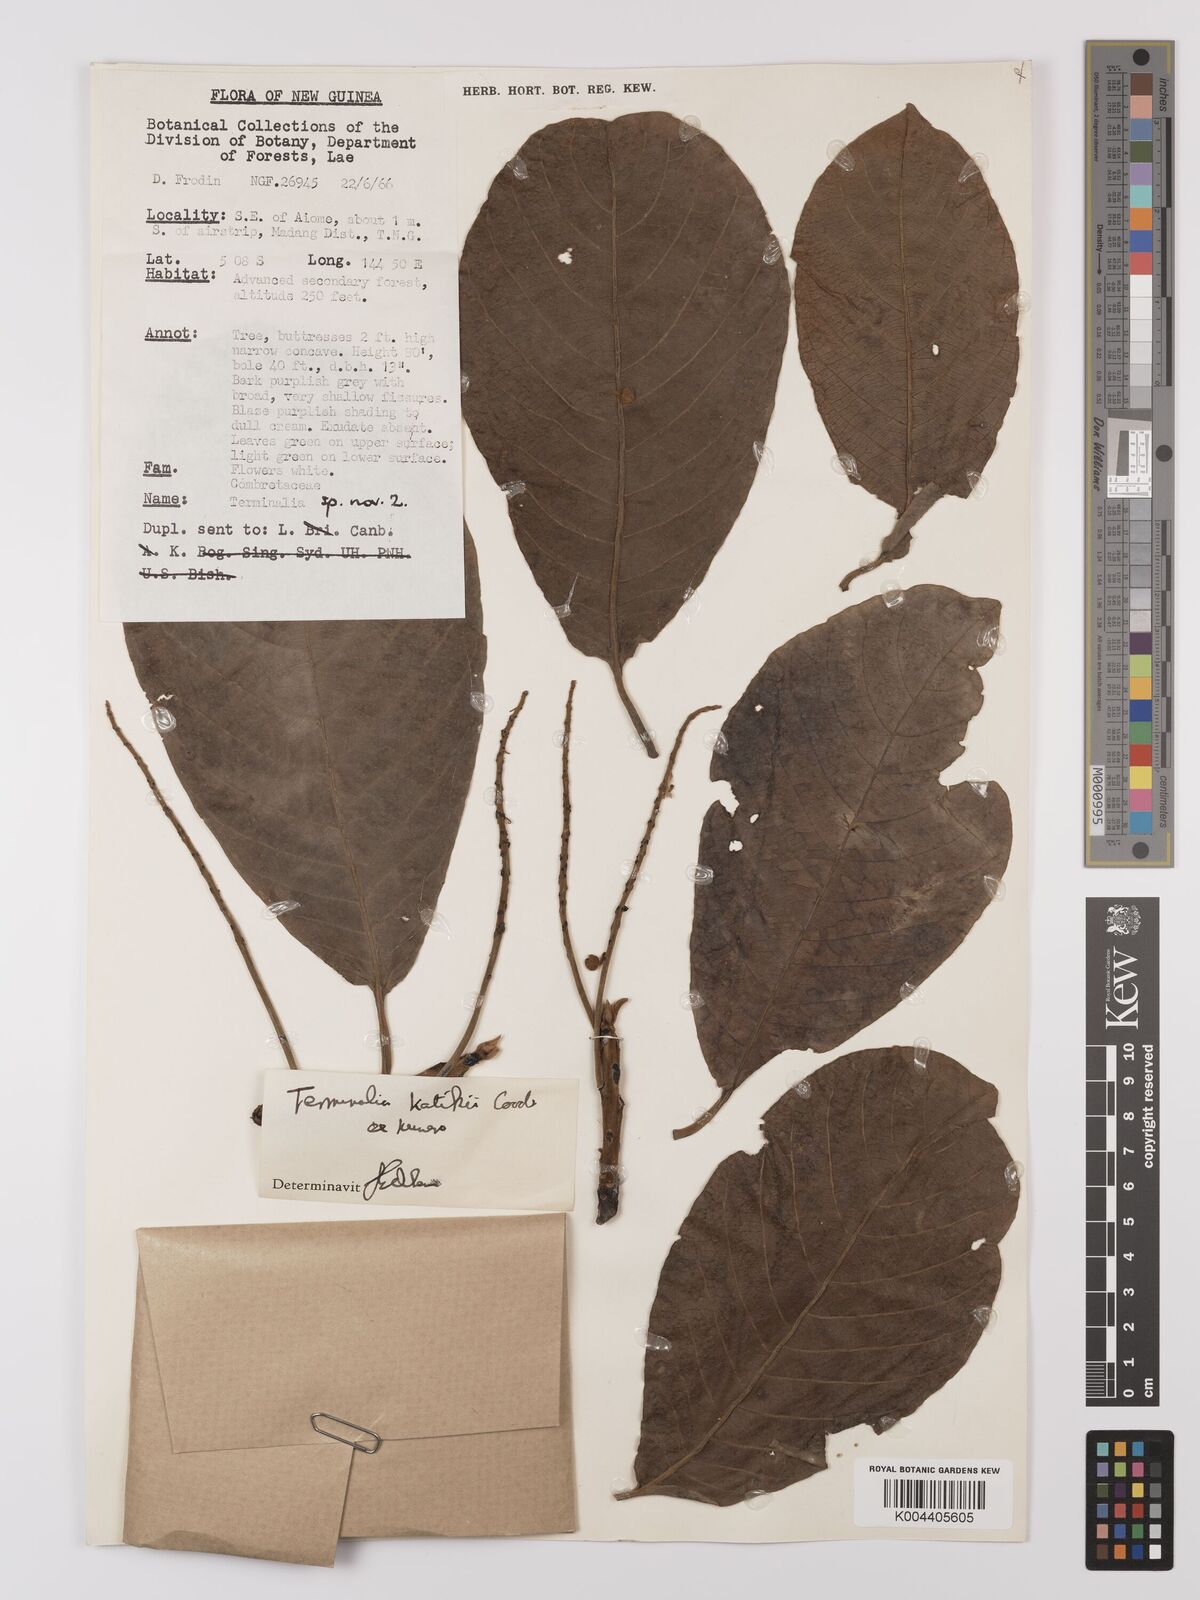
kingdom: Plantae
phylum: Tracheophyta
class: Magnoliopsida
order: Myrtales
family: Combretaceae
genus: Terminalia
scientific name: Terminalia katikii
